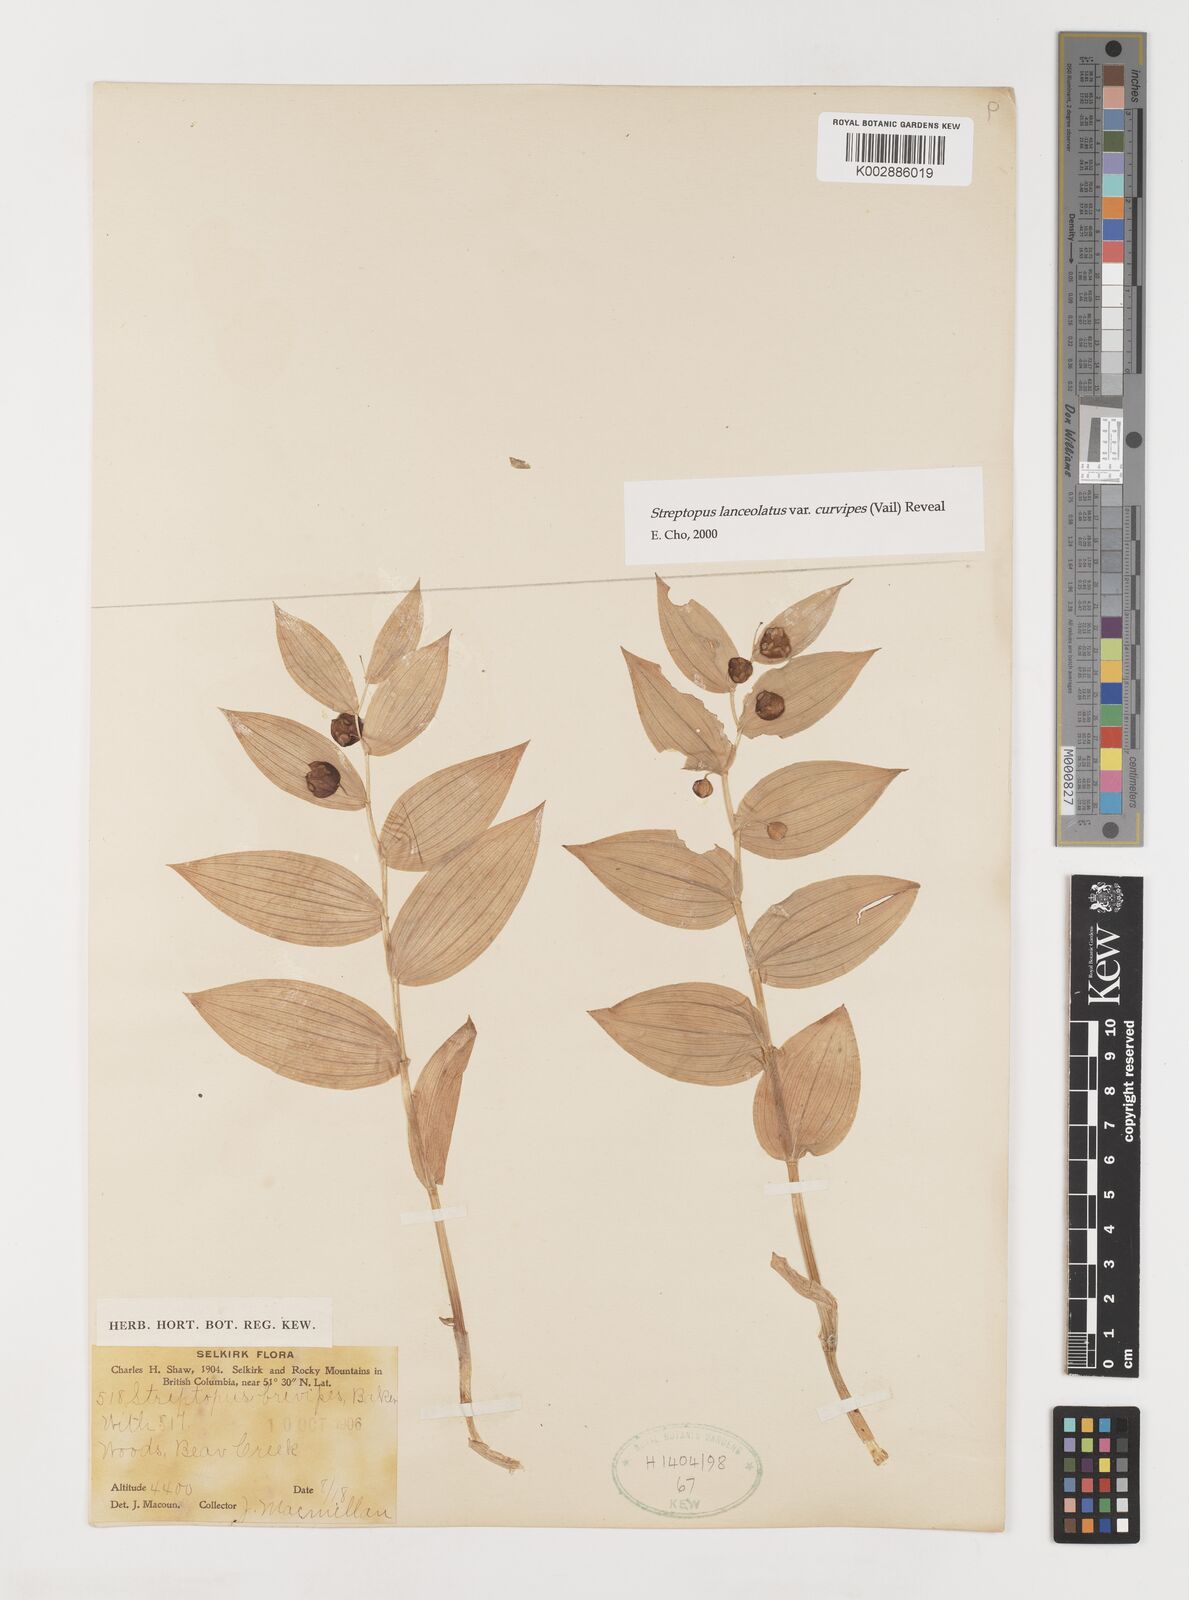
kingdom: Plantae
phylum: Tracheophyta
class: Liliopsida
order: Liliales
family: Liliaceae
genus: Streptopus
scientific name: Streptopus lanceolatus
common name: Rose mandarin
